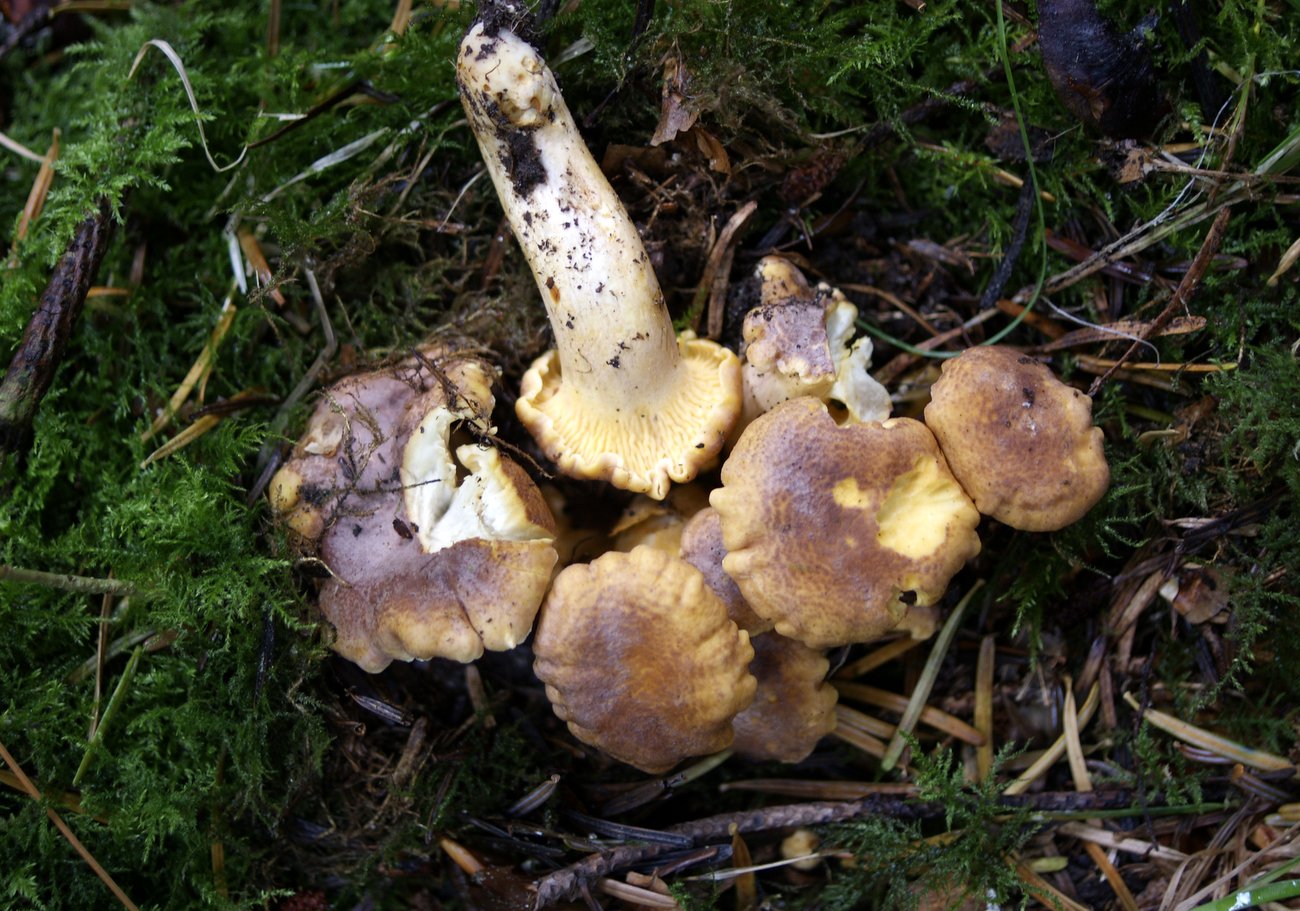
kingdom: Fungi
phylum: Basidiomycota
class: Agaricomycetes
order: Cantharellales
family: Hydnaceae
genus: Cantharellus
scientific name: Cantharellus amethysteus
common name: ametyst-kantarel
